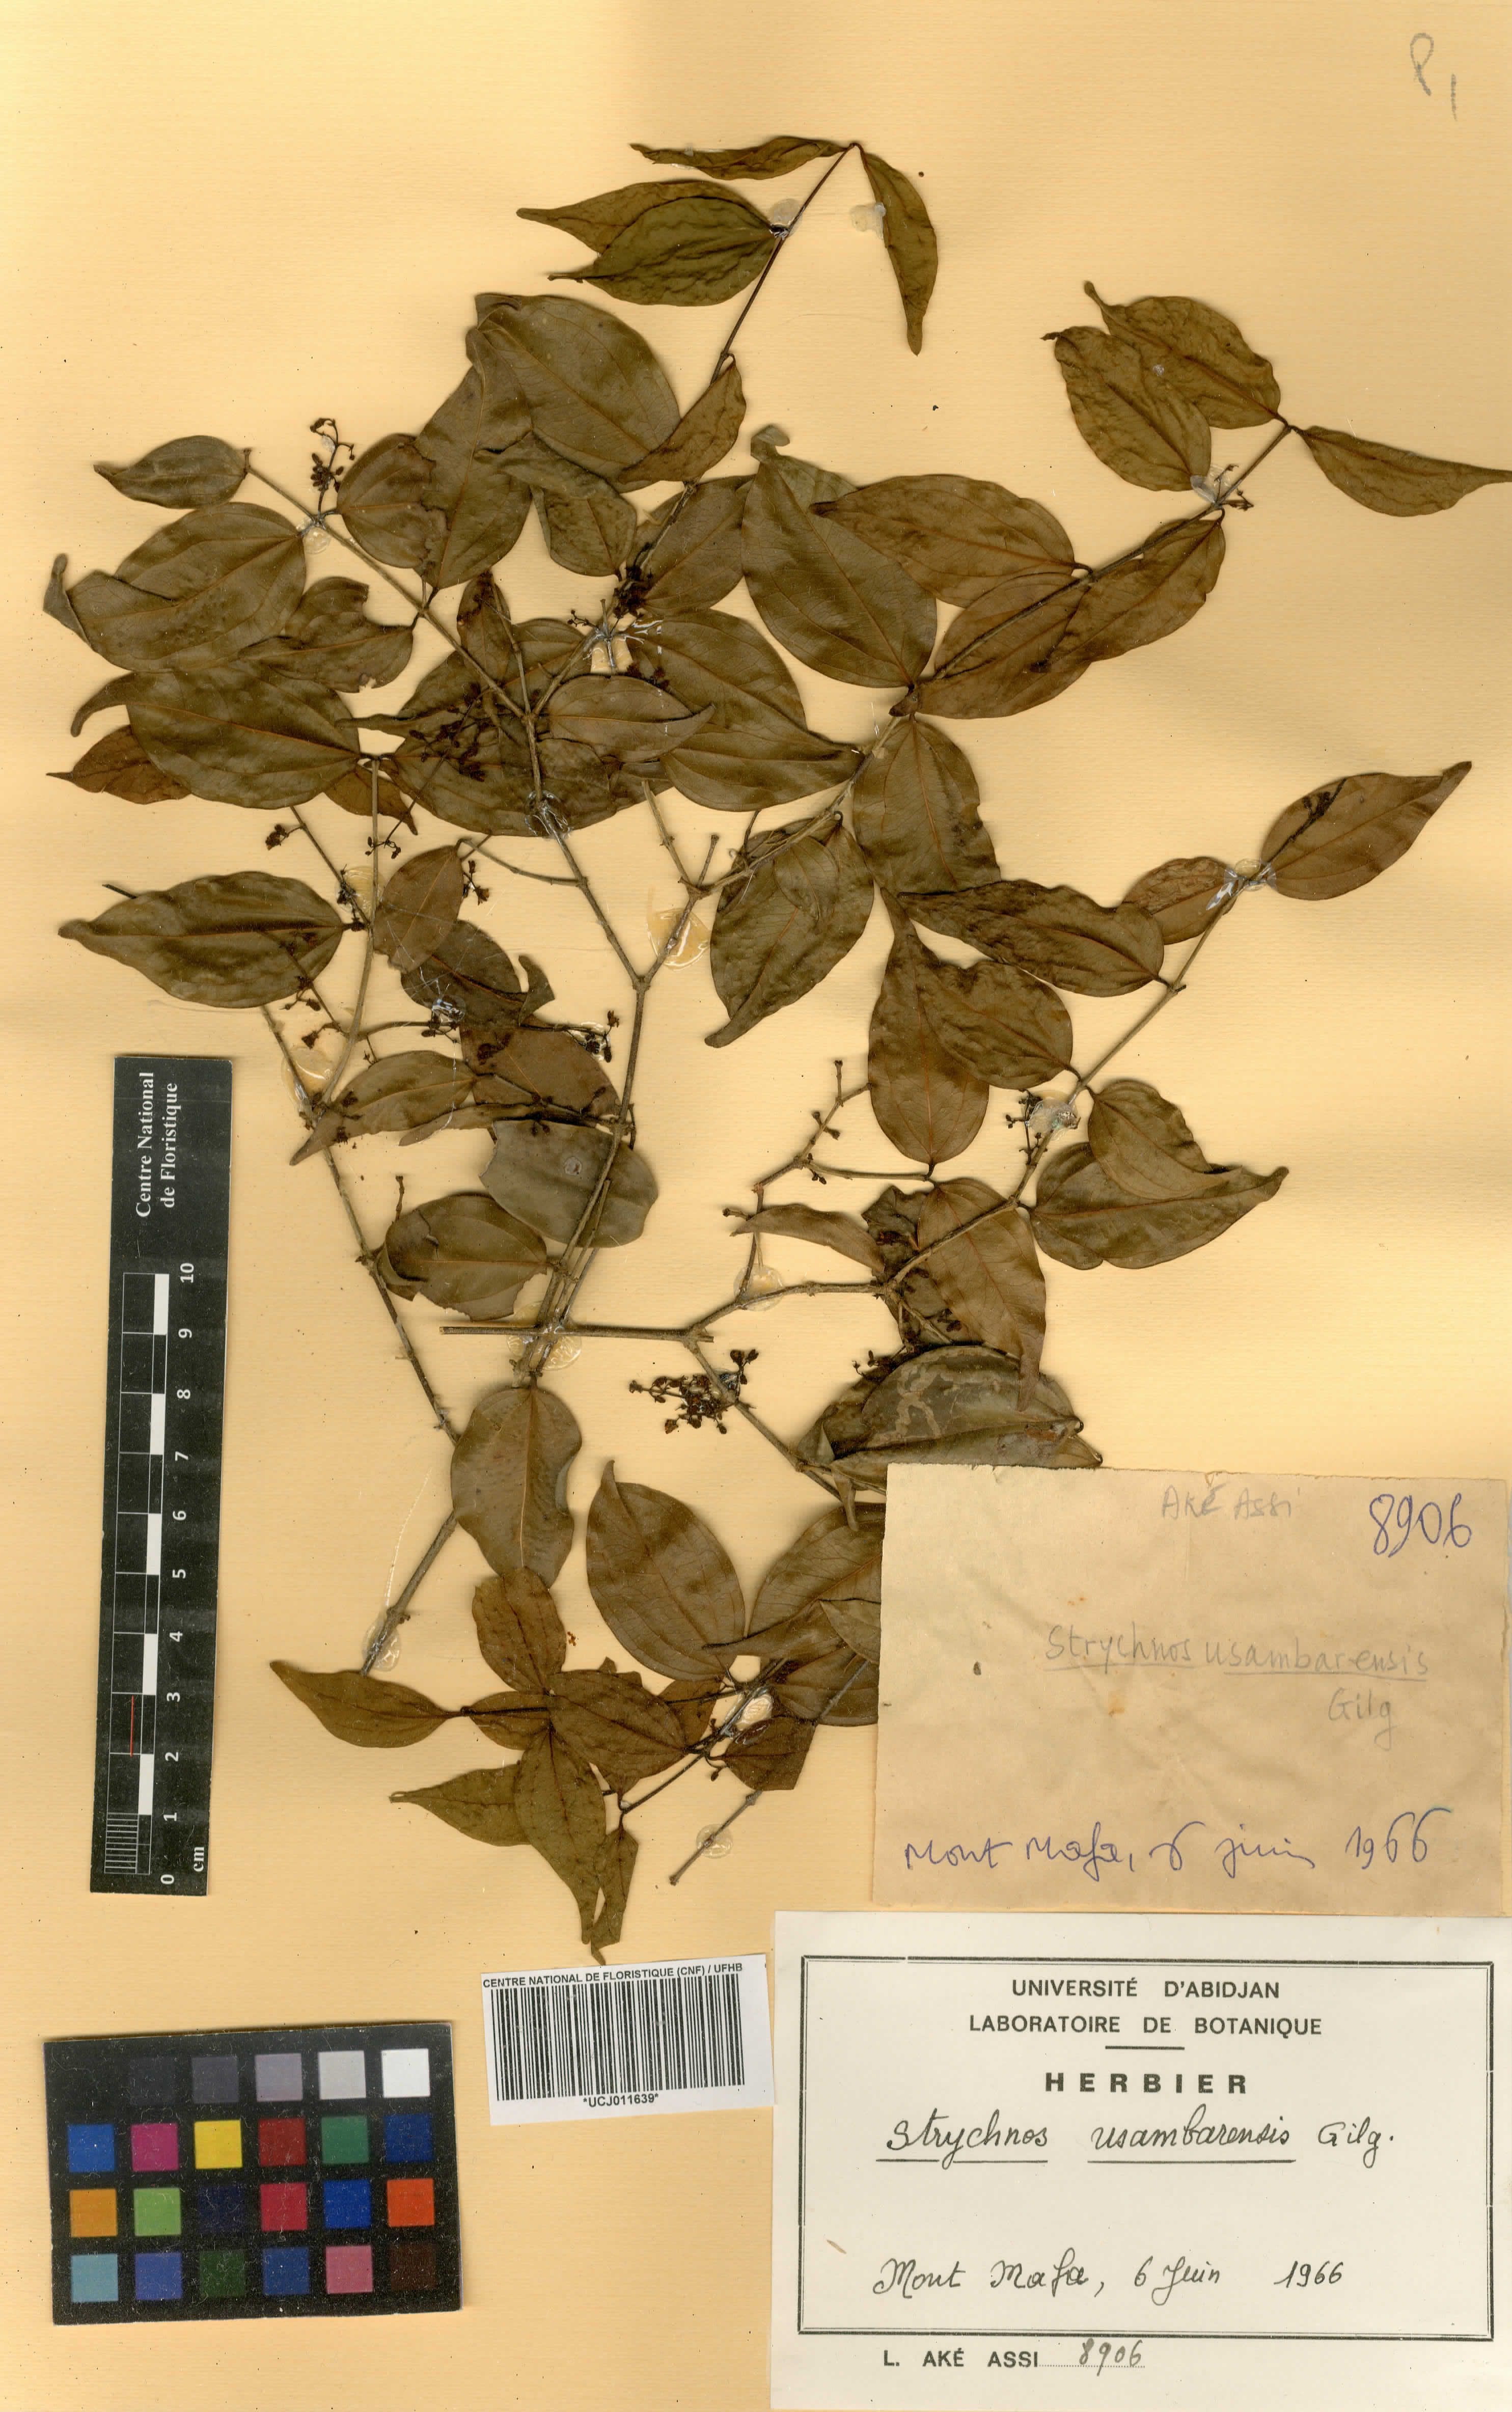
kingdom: Plantae
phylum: Tracheophyta
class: Magnoliopsida
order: Gentianales
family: Loganiaceae
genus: Strychnos
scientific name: Strychnos usambarensis
